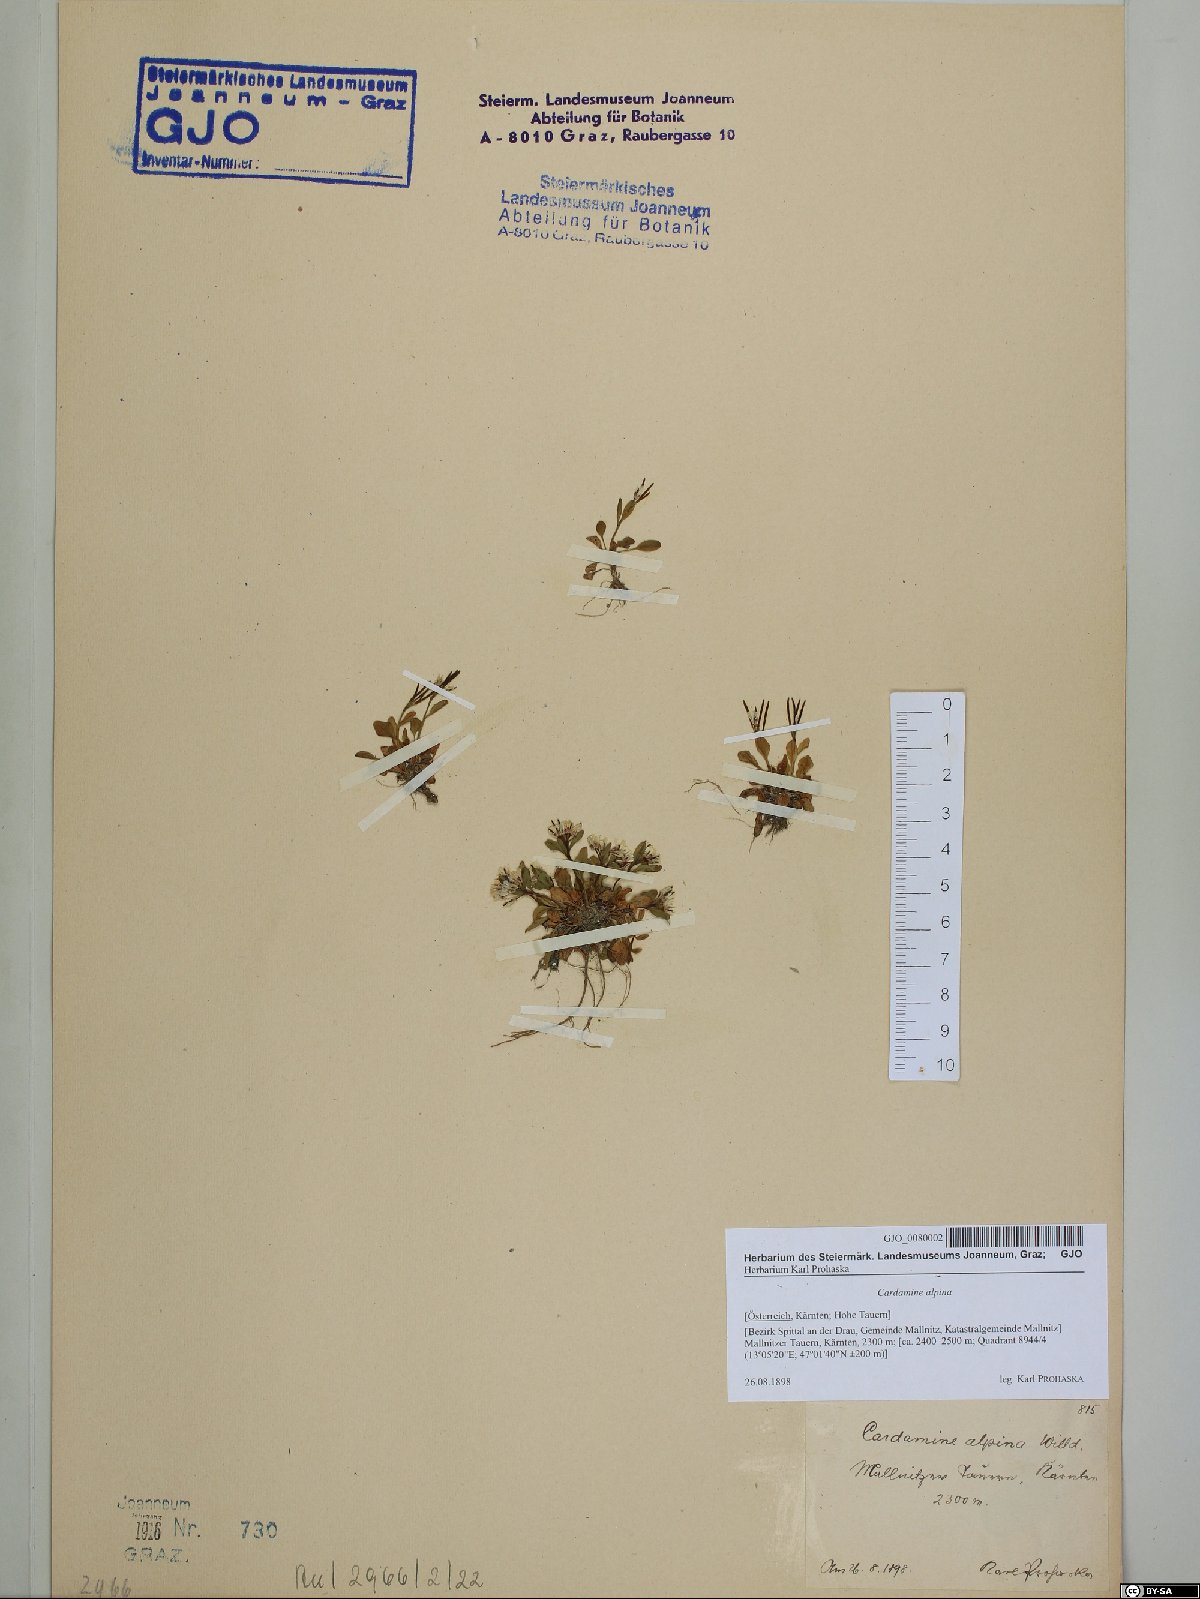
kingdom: Plantae
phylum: Tracheophyta
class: Magnoliopsida
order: Brassicales
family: Brassicaceae
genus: Cardamine
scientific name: Cardamine bellidifolia
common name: Alpine bittercress
